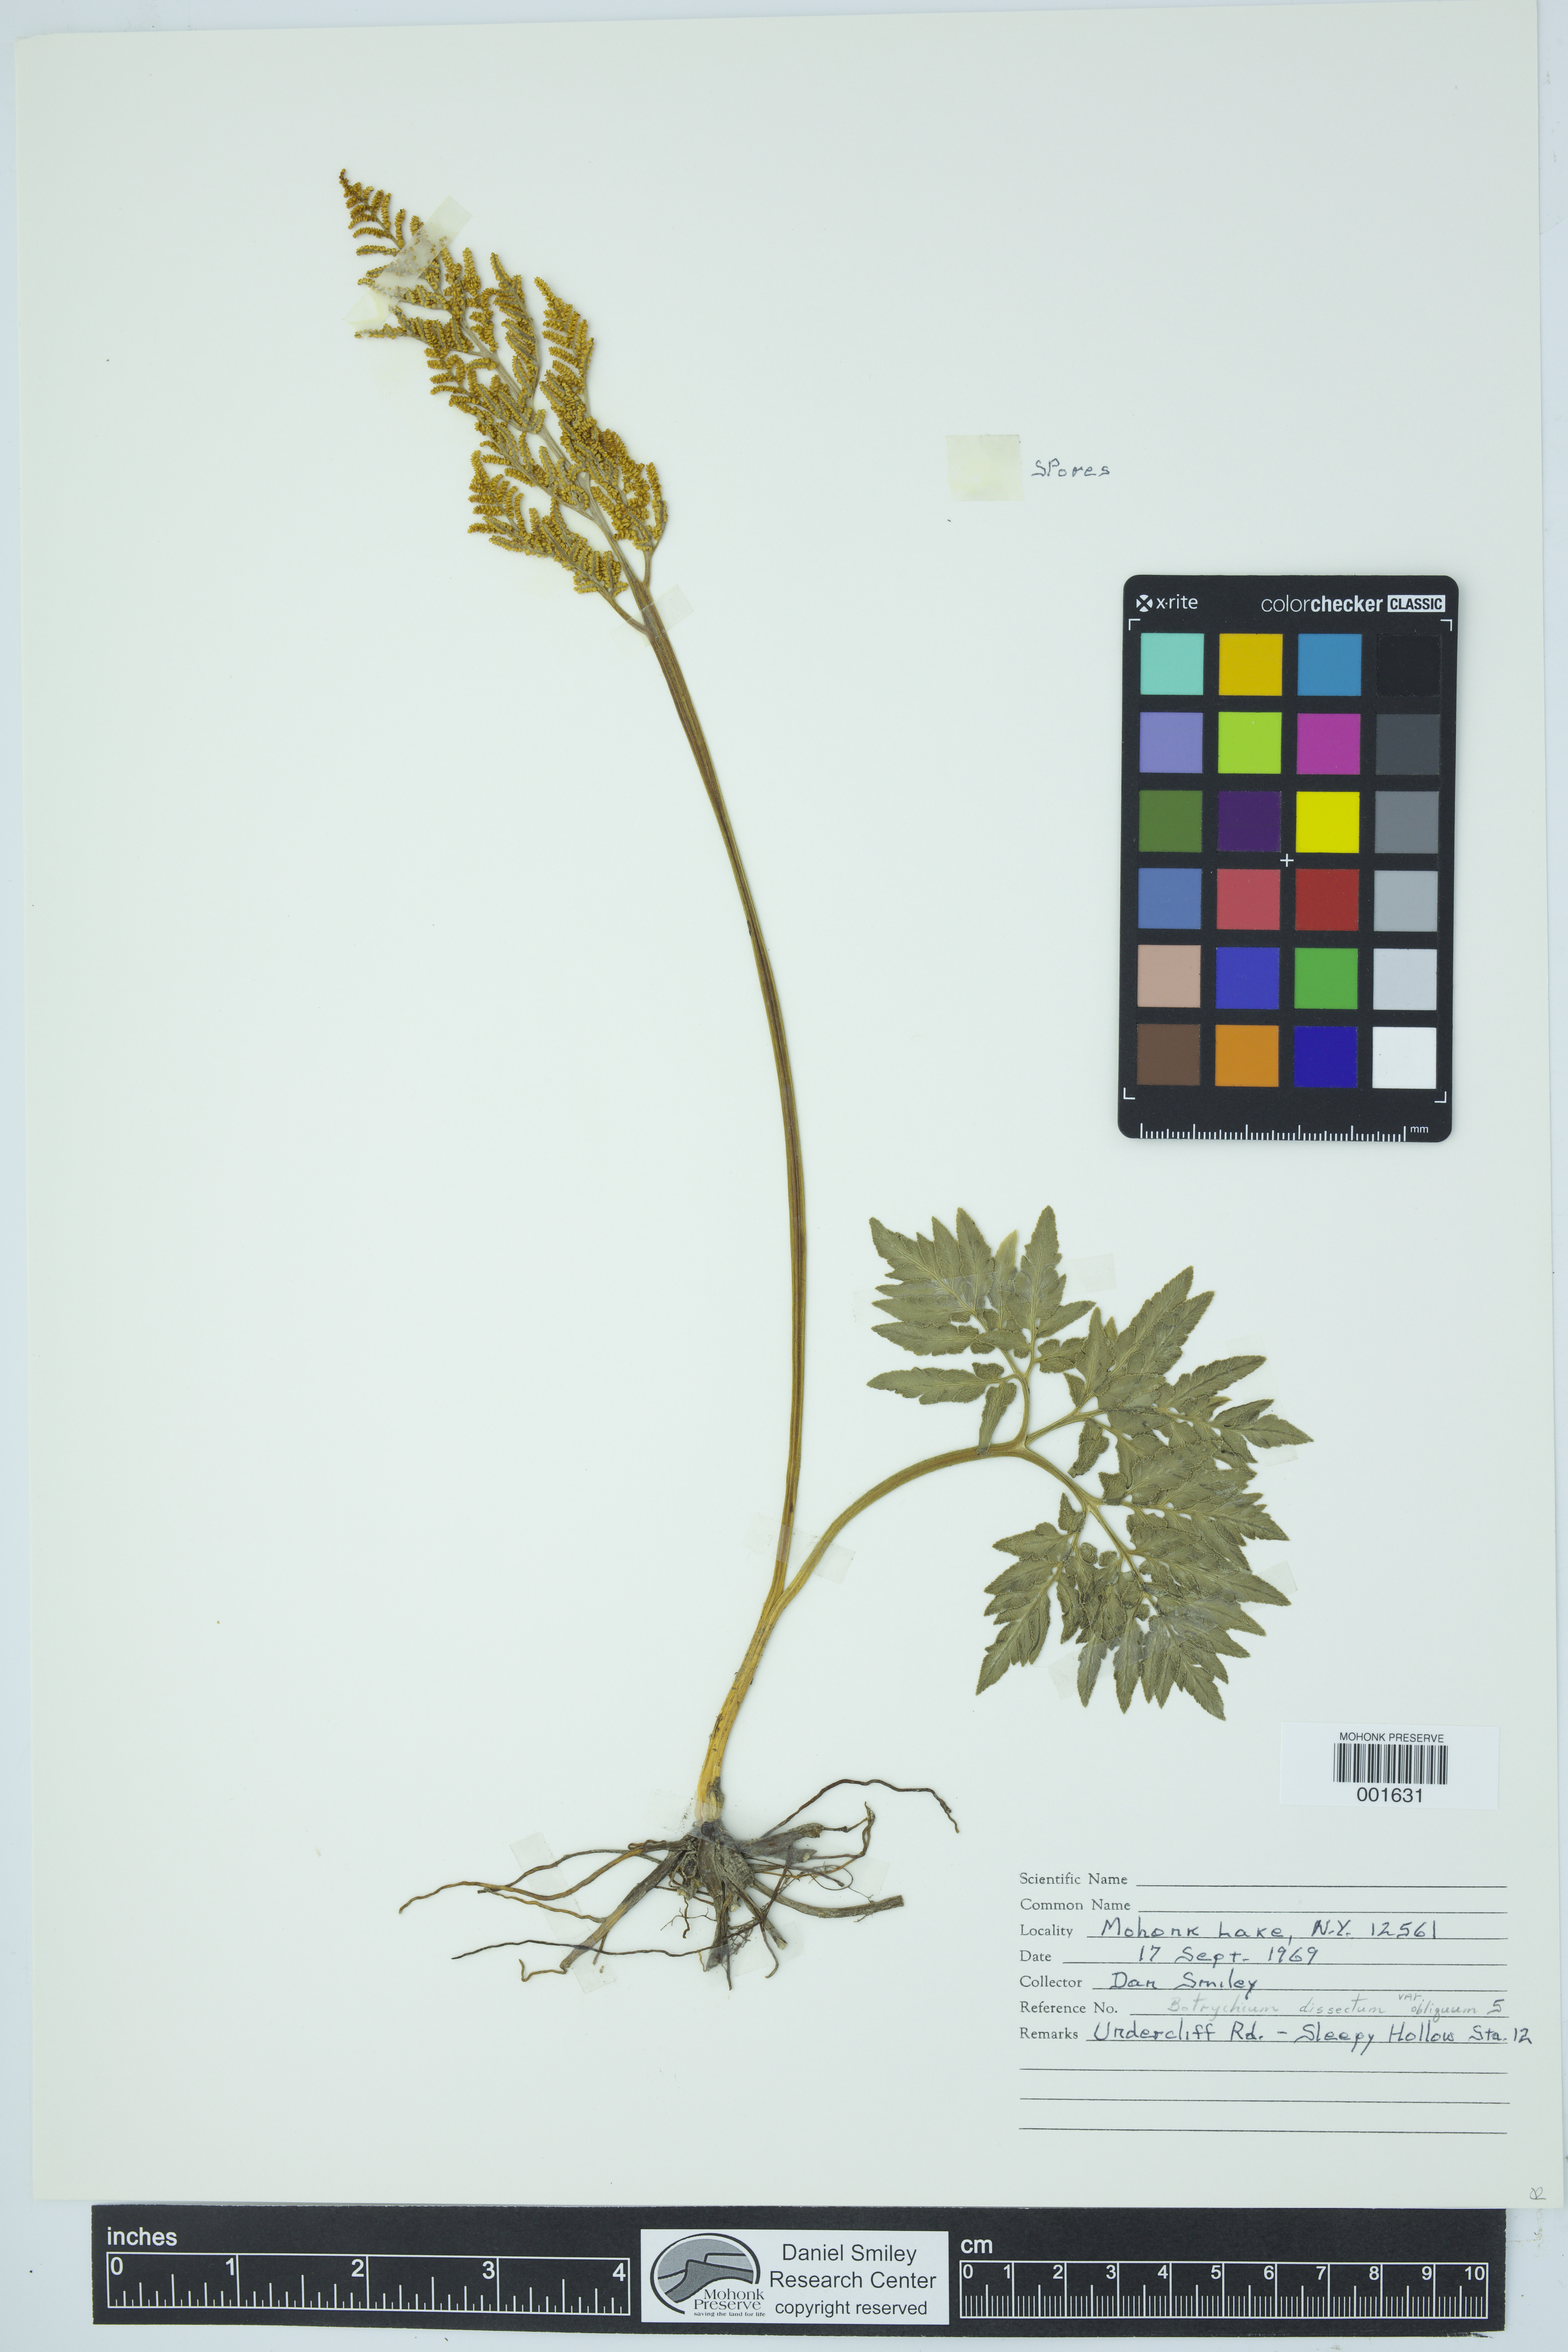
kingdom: Plantae
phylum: Tracheophyta
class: Polypodiopsida
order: Ophioglossales
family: Ophioglossaceae
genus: Sceptridium
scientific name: Sceptridium dissectum
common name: Cut-leaved grapefern
